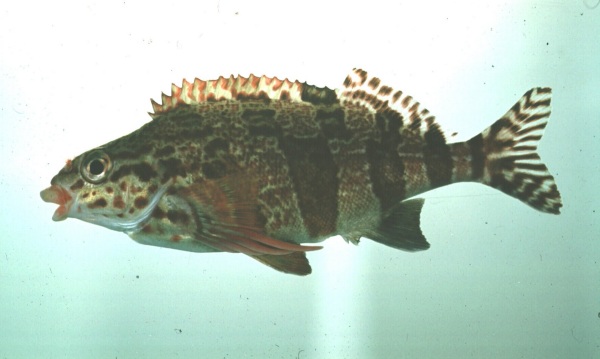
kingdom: Animalia
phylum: Chordata
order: Perciformes
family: Cheilodactylidae
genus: Cheilodactylus
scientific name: Cheilodactylus fasciatus
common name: Redfingers
